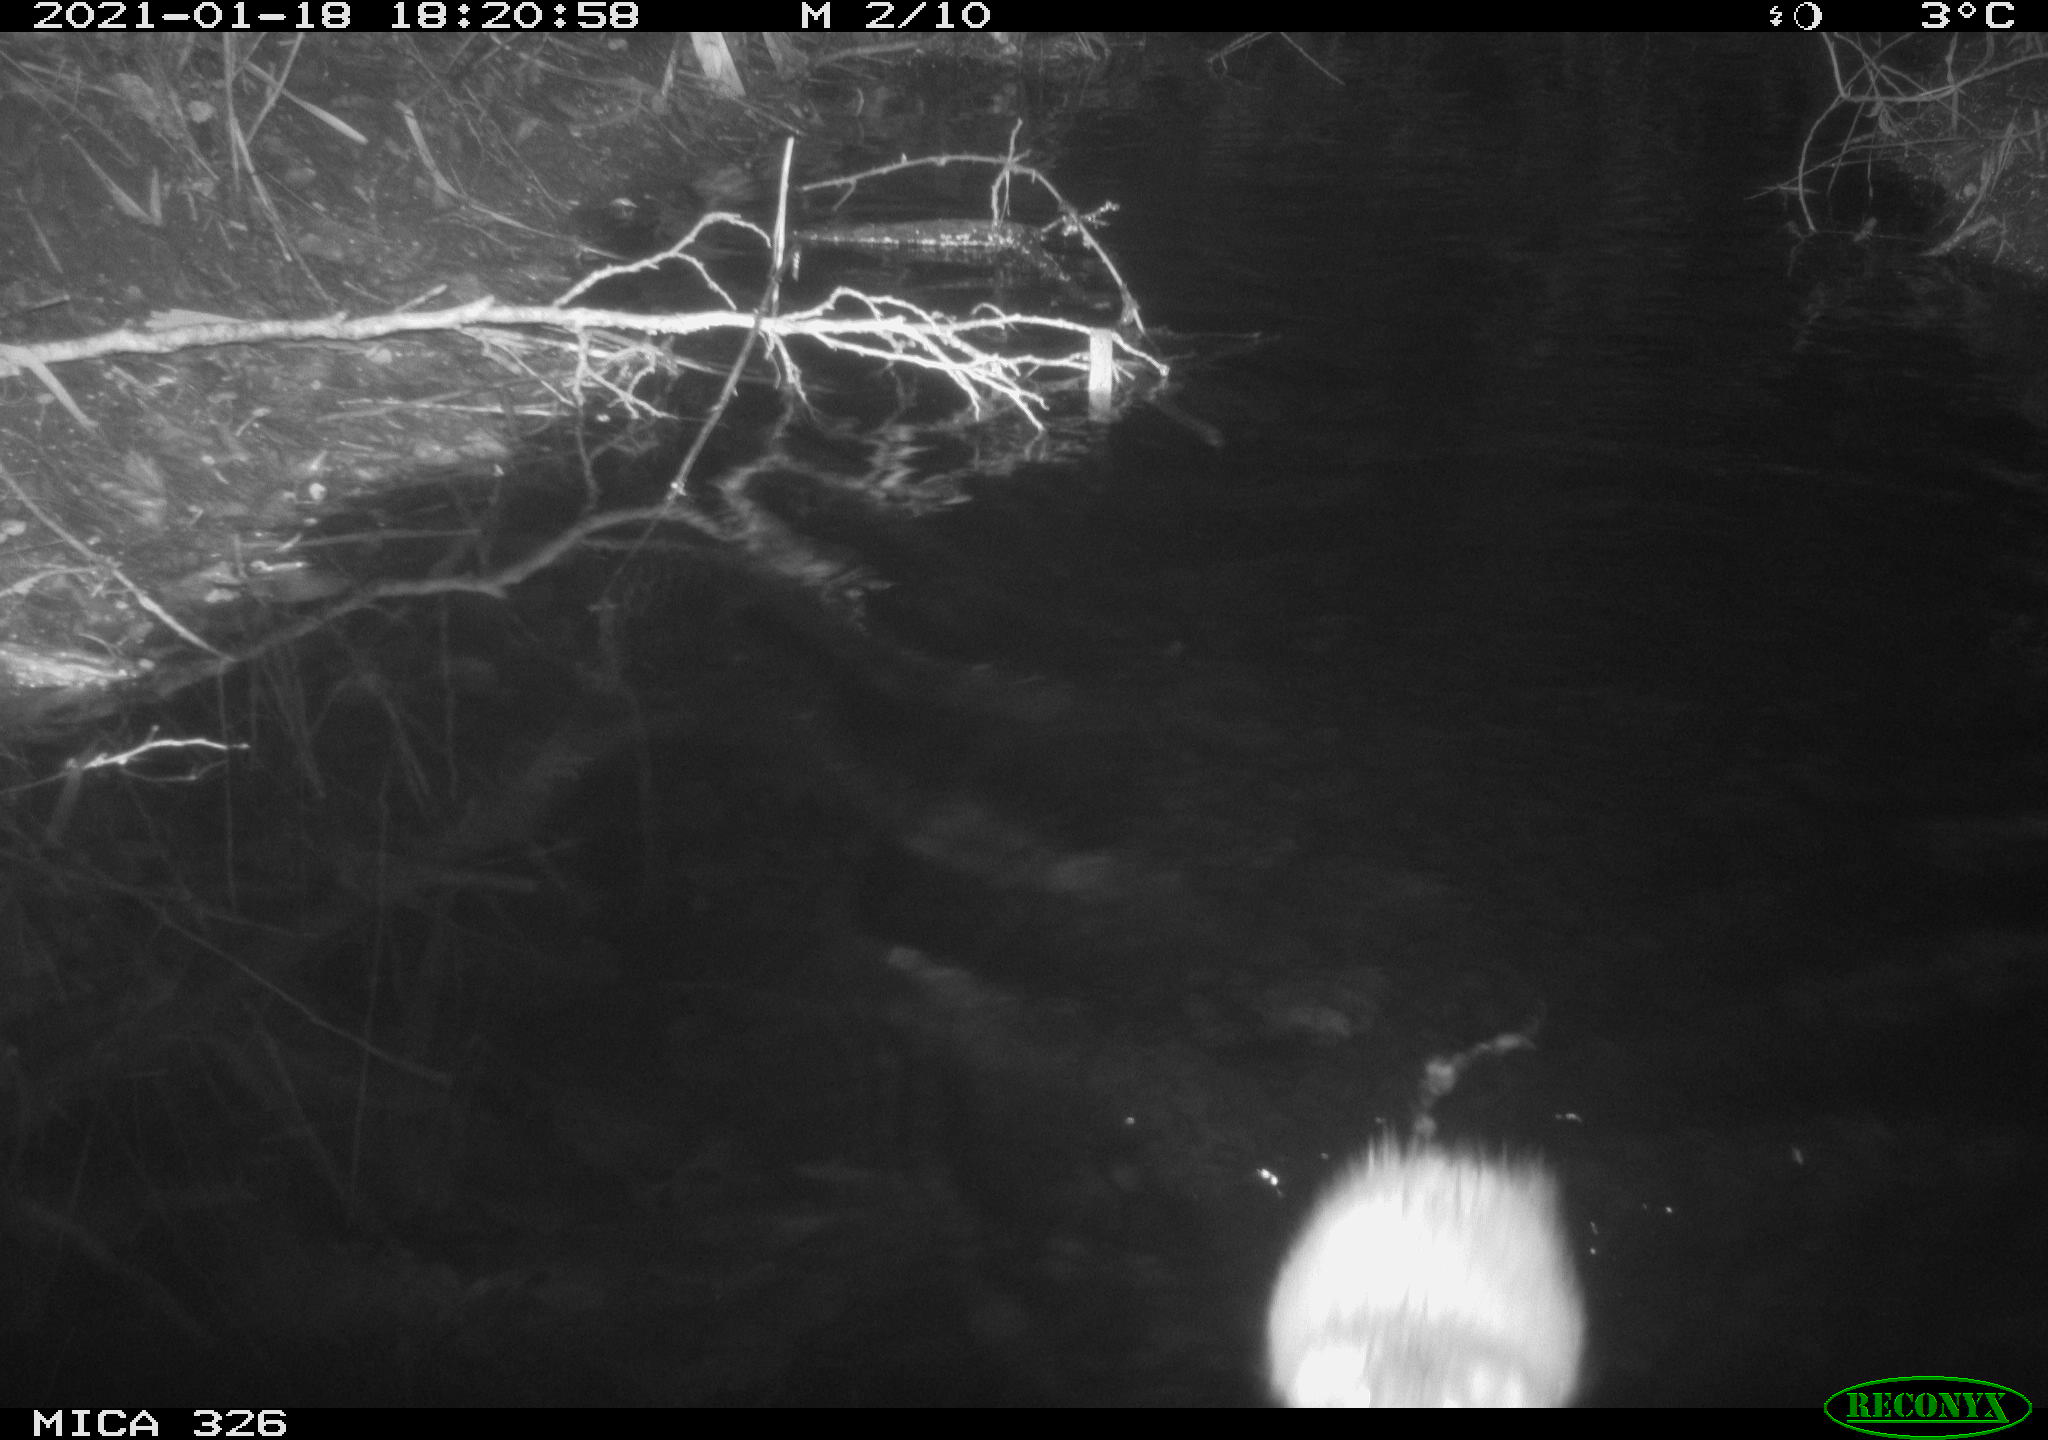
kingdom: Animalia
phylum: Chordata
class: Mammalia
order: Rodentia
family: Cricetidae
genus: Ondatra
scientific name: Ondatra zibethicus
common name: Muskrat
